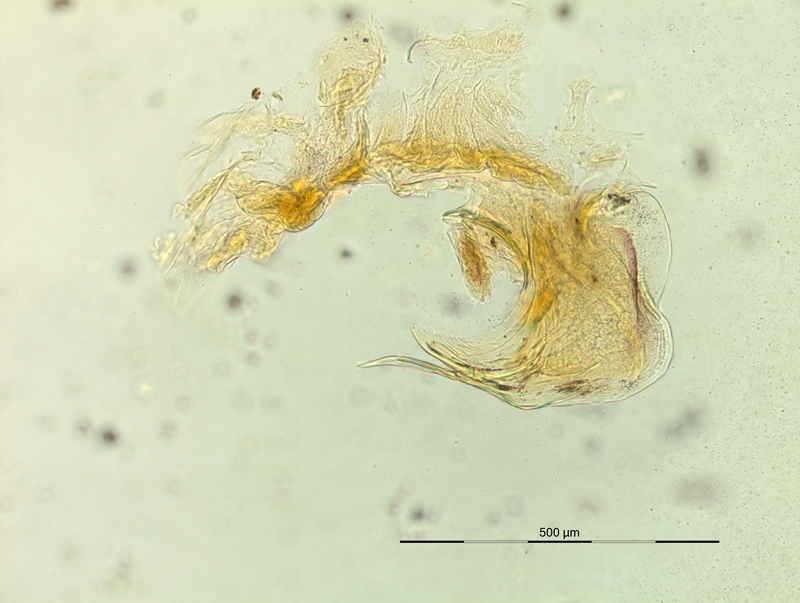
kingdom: Animalia
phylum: Arthropoda
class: Diplopoda
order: Chordeumatida
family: Craspedosomatidae
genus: Rhymogona
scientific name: Rhymogona wehrana
